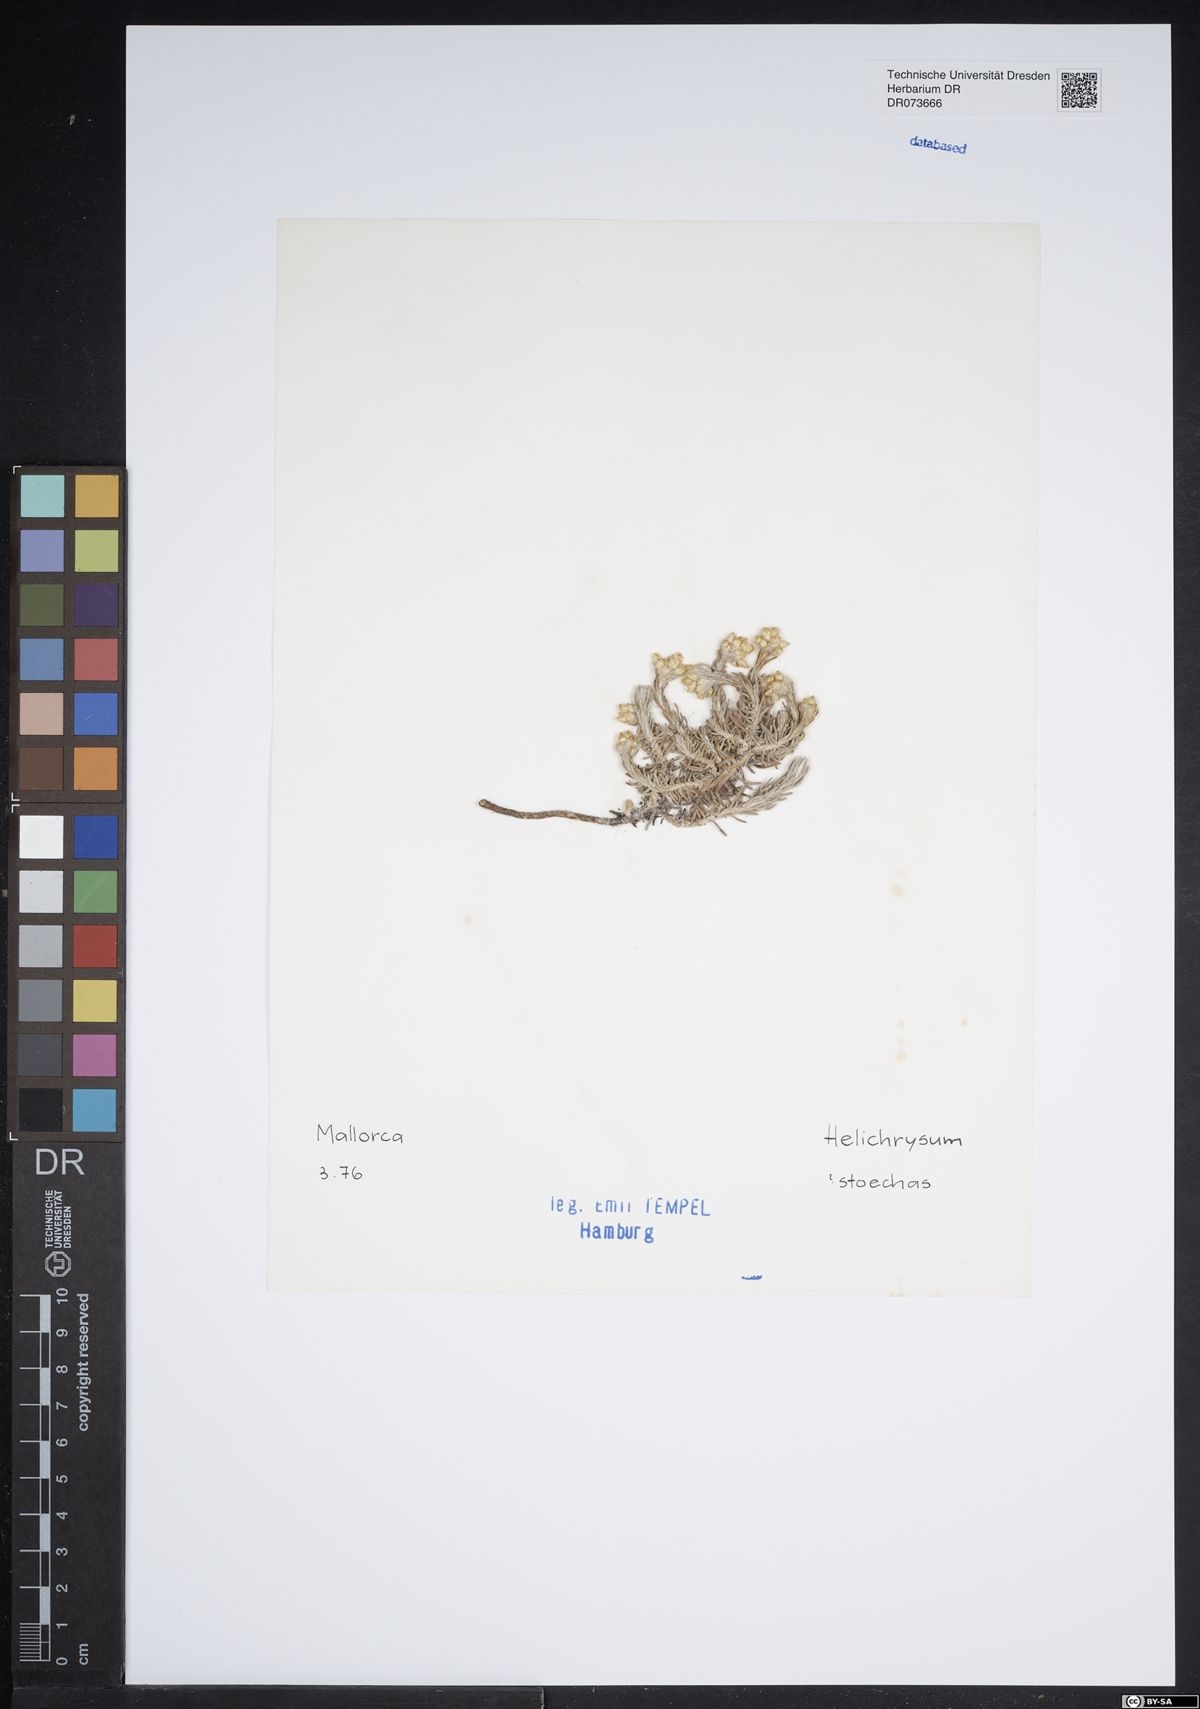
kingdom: Plantae
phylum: Tracheophyta
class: Magnoliopsida
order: Asterales
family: Asteraceae
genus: Helichrysum
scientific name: Helichrysum stoechas
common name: Goldilocks
